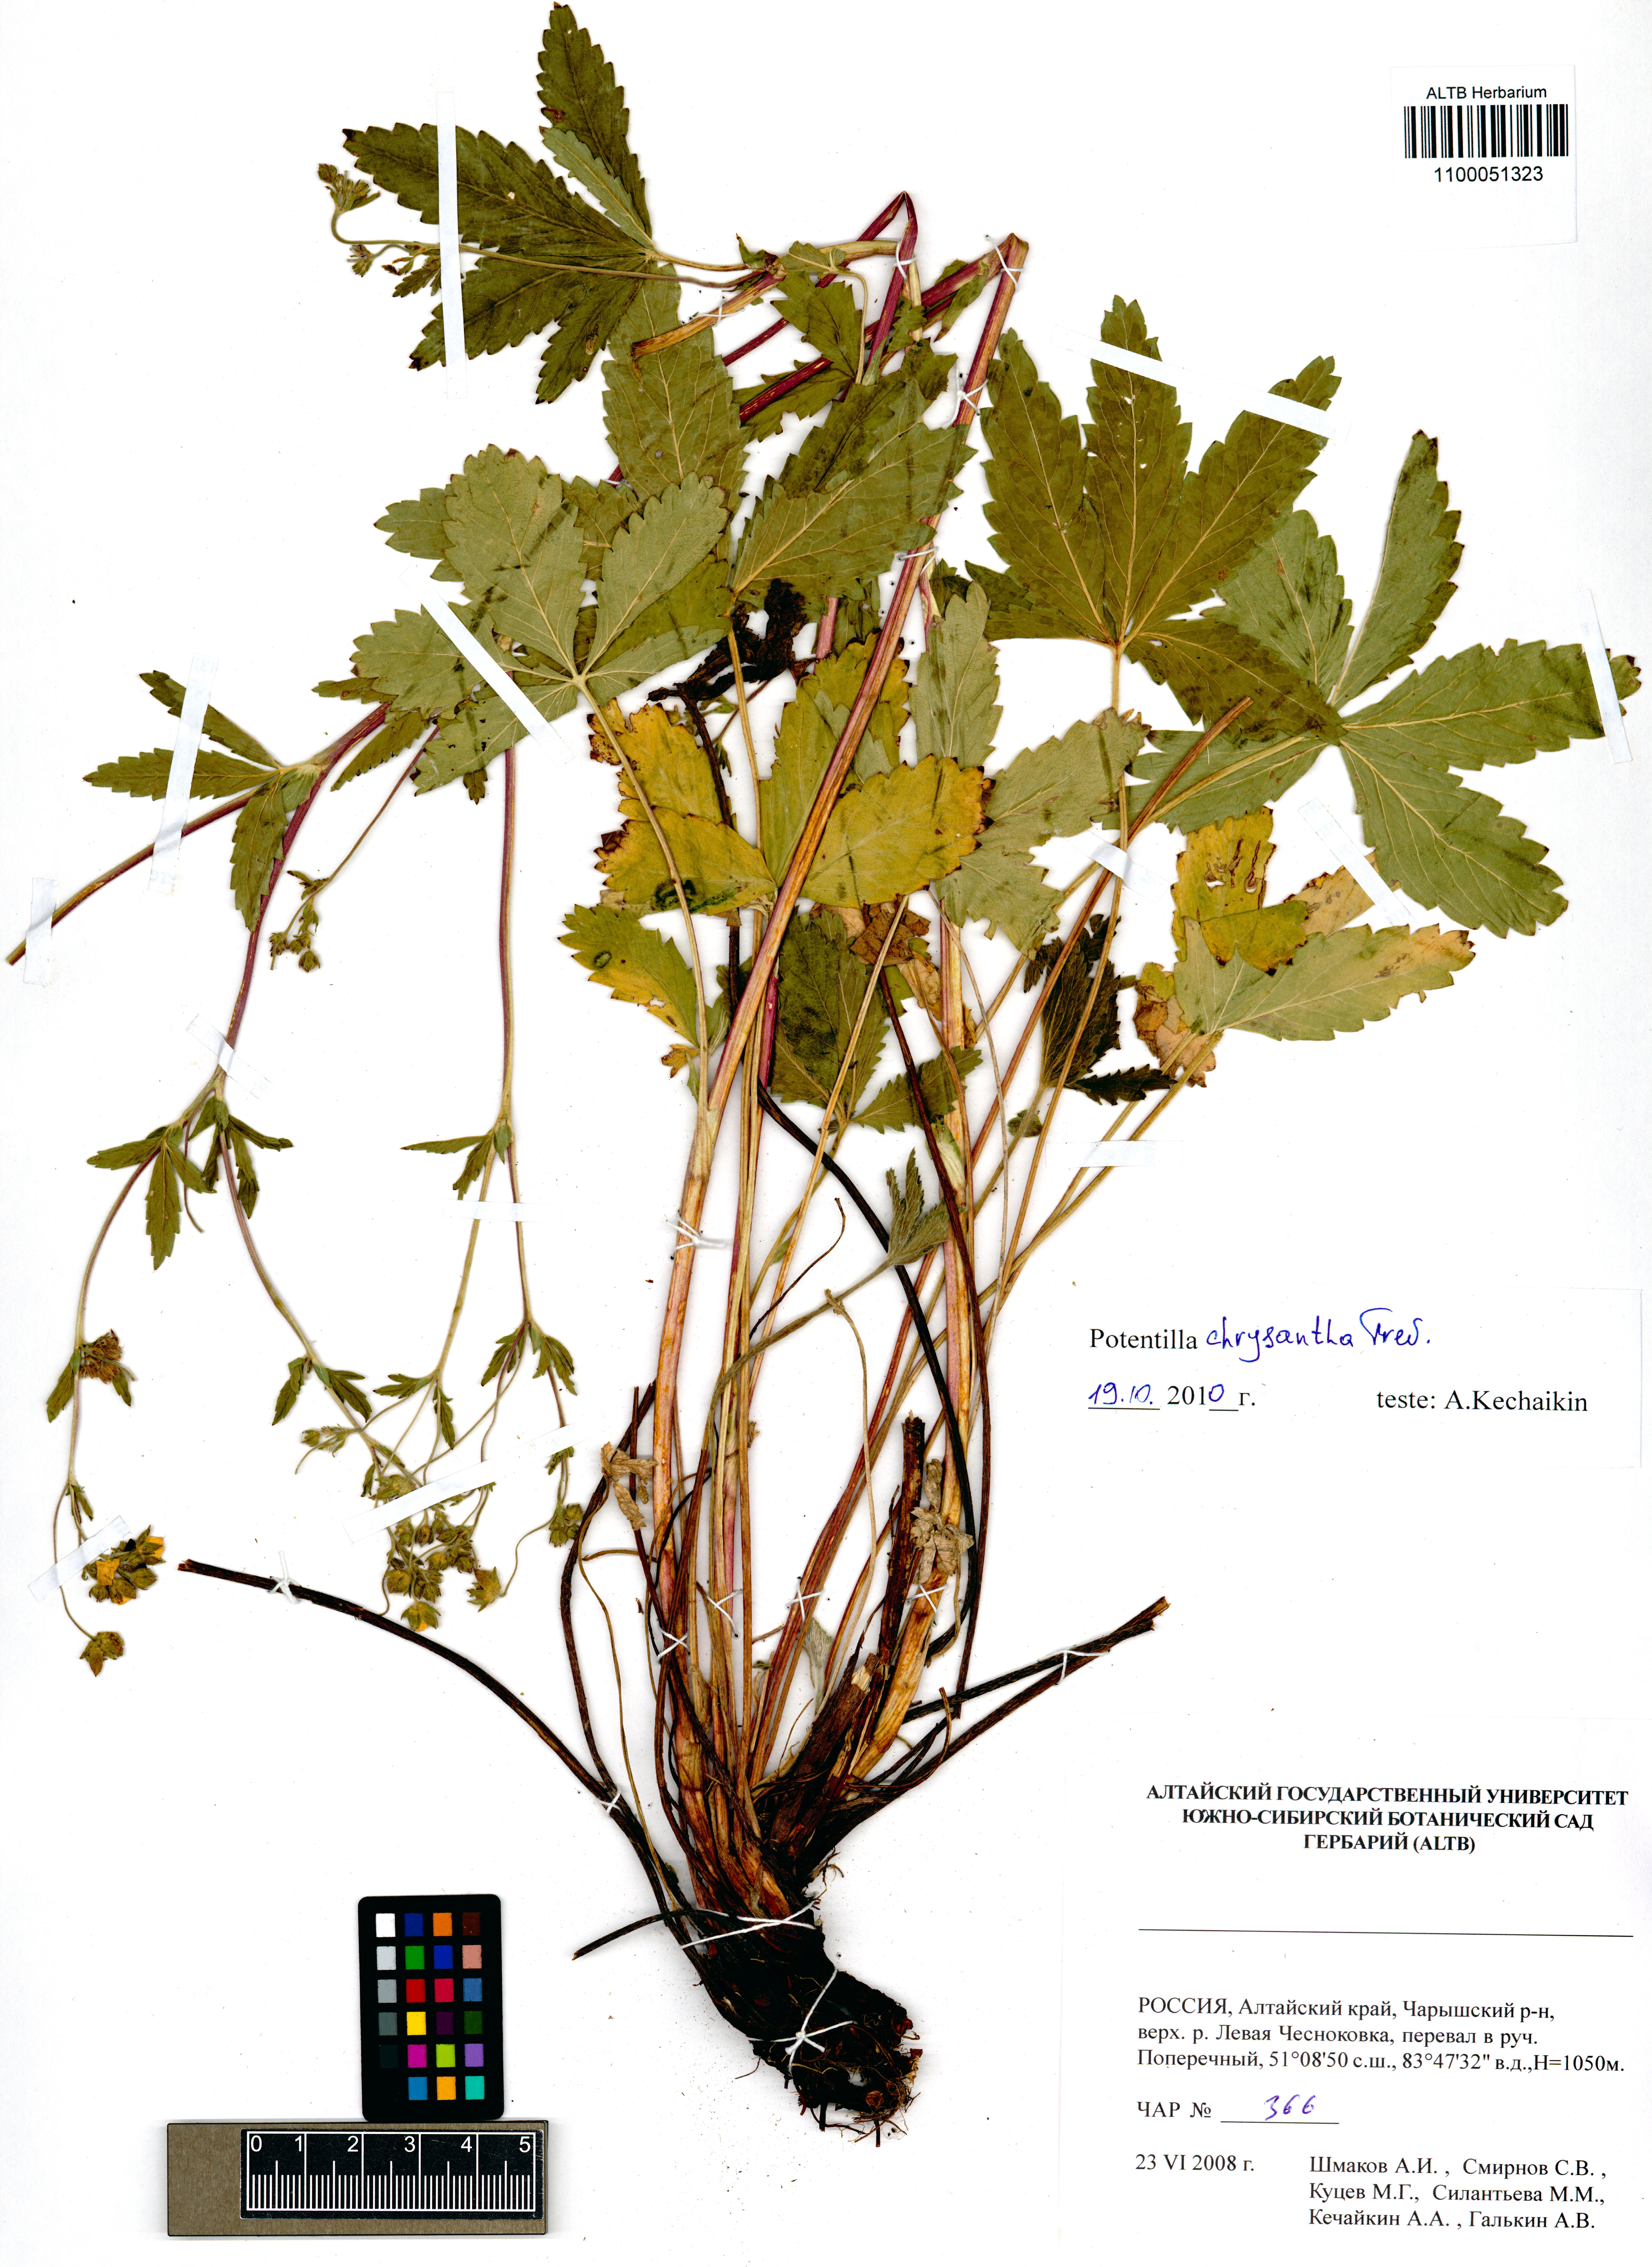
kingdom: Plantae
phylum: Tracheophyta
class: Magnoliopsida
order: Rosales
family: Rosaceae
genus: Potentilla
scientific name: Potentilla chrysantha
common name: Thuringian cinquefoil
